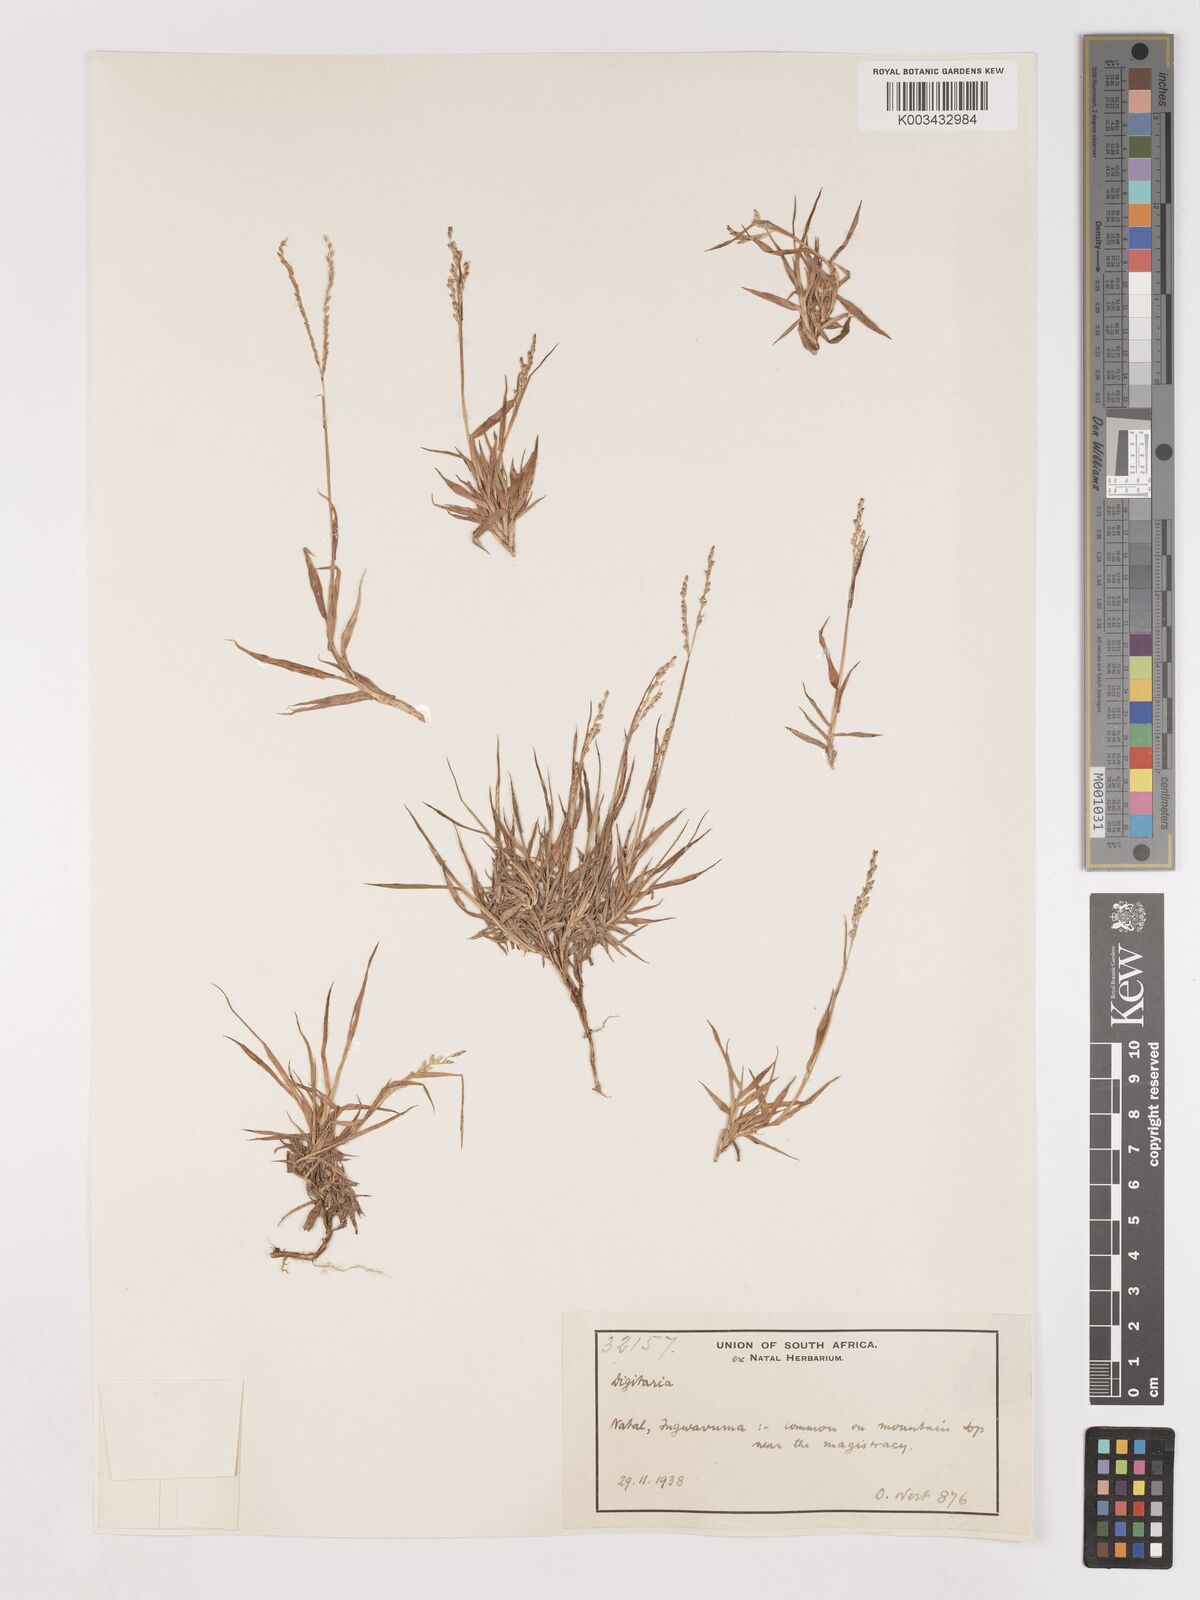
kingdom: Plantae
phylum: Tracheophyta
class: Liliopsida
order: Poales
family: Poaceae
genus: Digitaria
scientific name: Digitaria abyssinica
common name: African couchgrass
